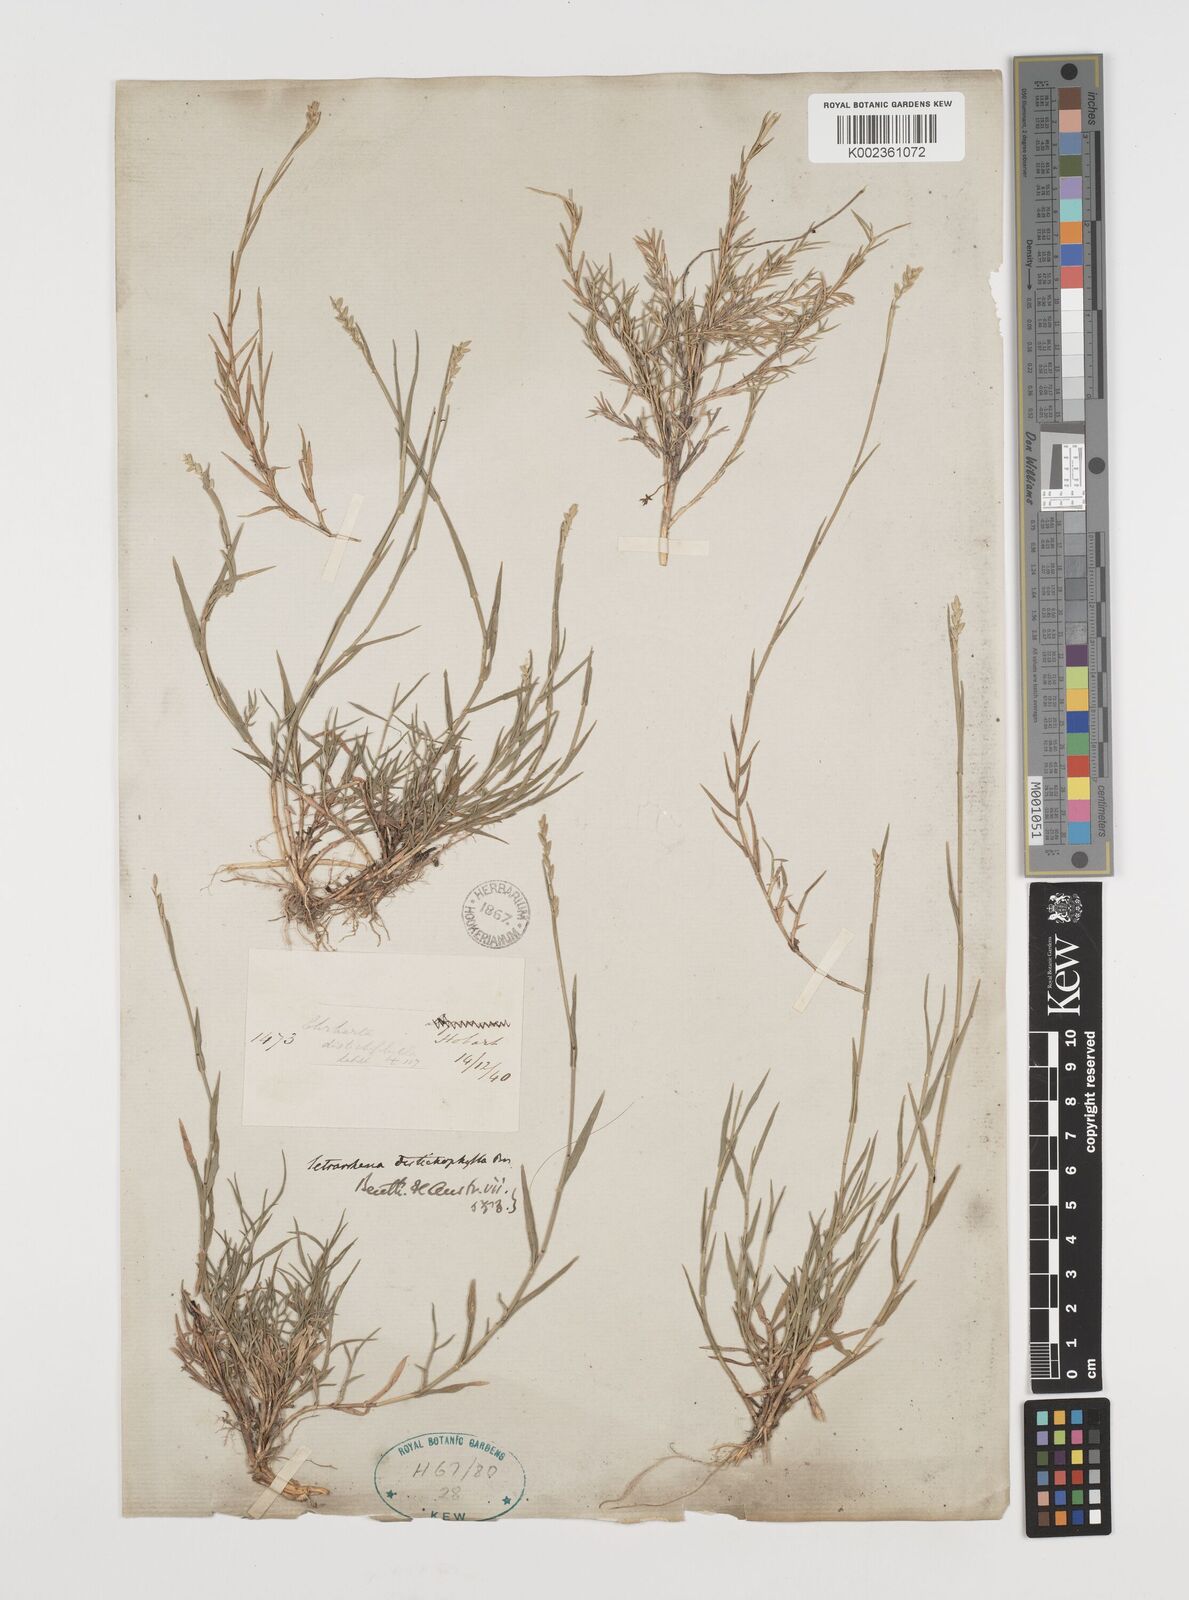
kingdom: Plantae
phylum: Tracheophyta
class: Liliopsida
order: Poales
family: Poaceae
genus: Tetrarrhena
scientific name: Tetrarrhena distichophylla
